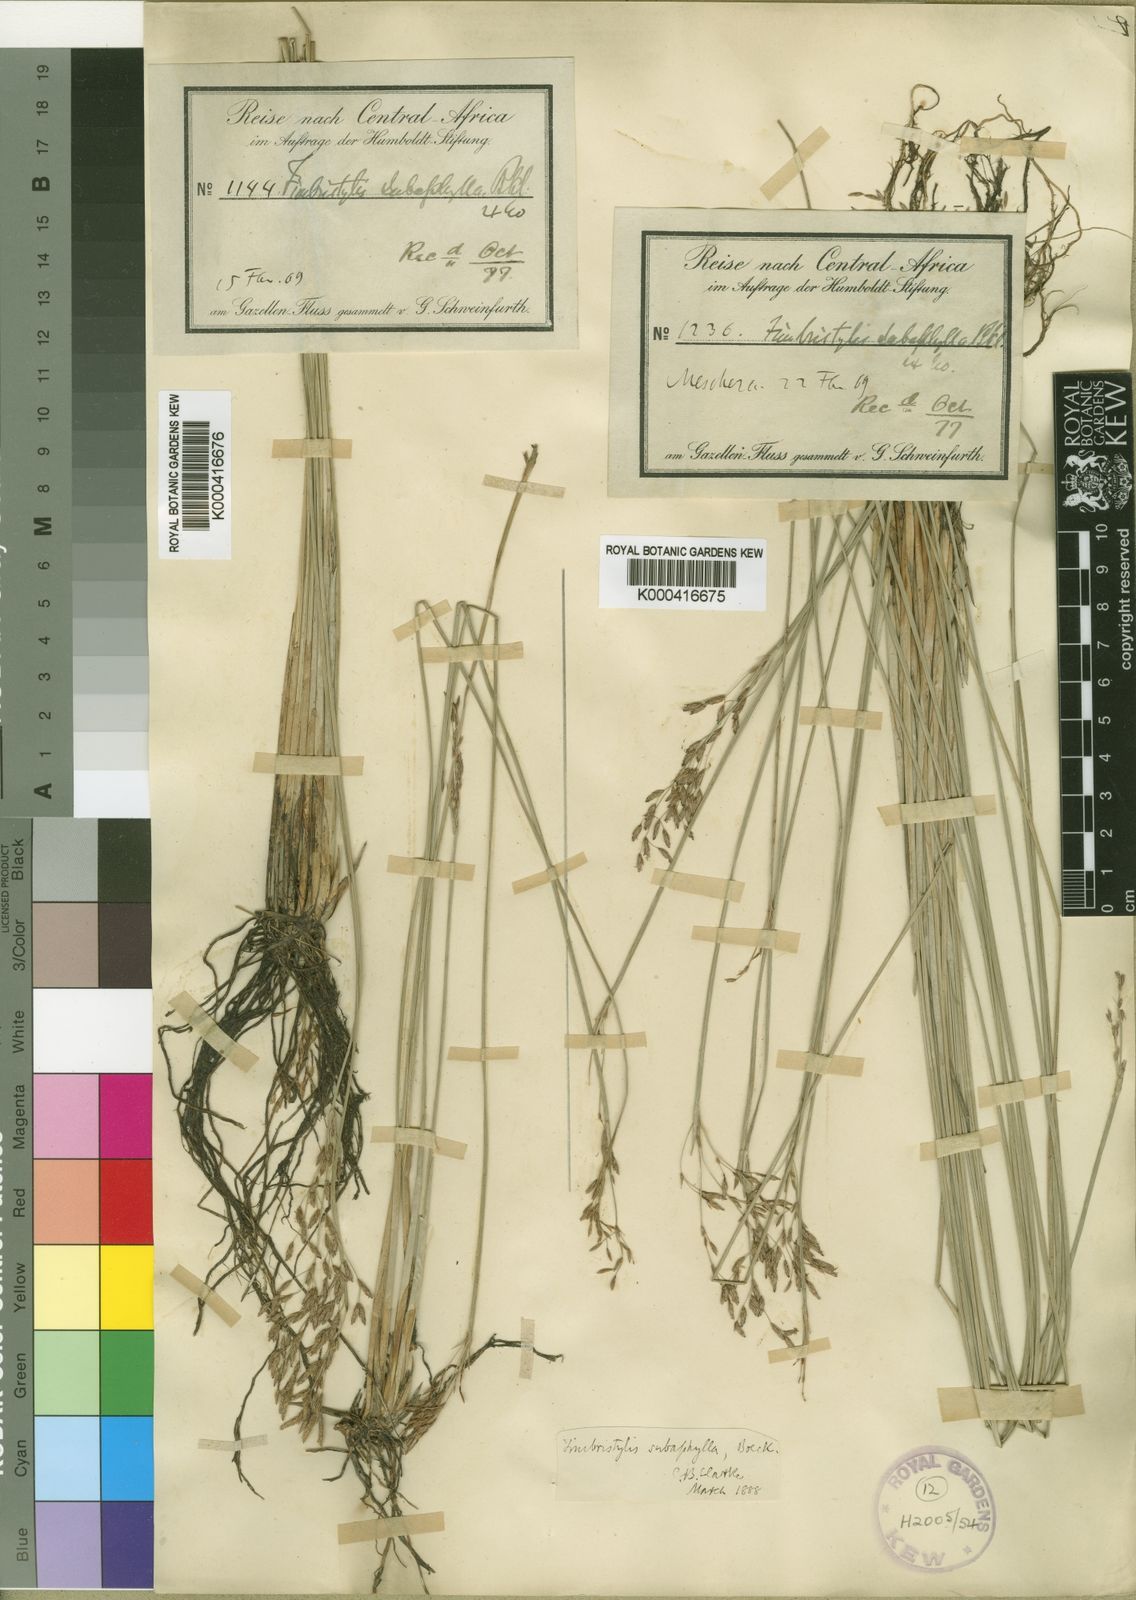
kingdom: Plantae
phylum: Tracheophyta
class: Liliopsida
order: Poales
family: Cyperaceae
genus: Fimbristylis
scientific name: Fimbristylis subaphylla
